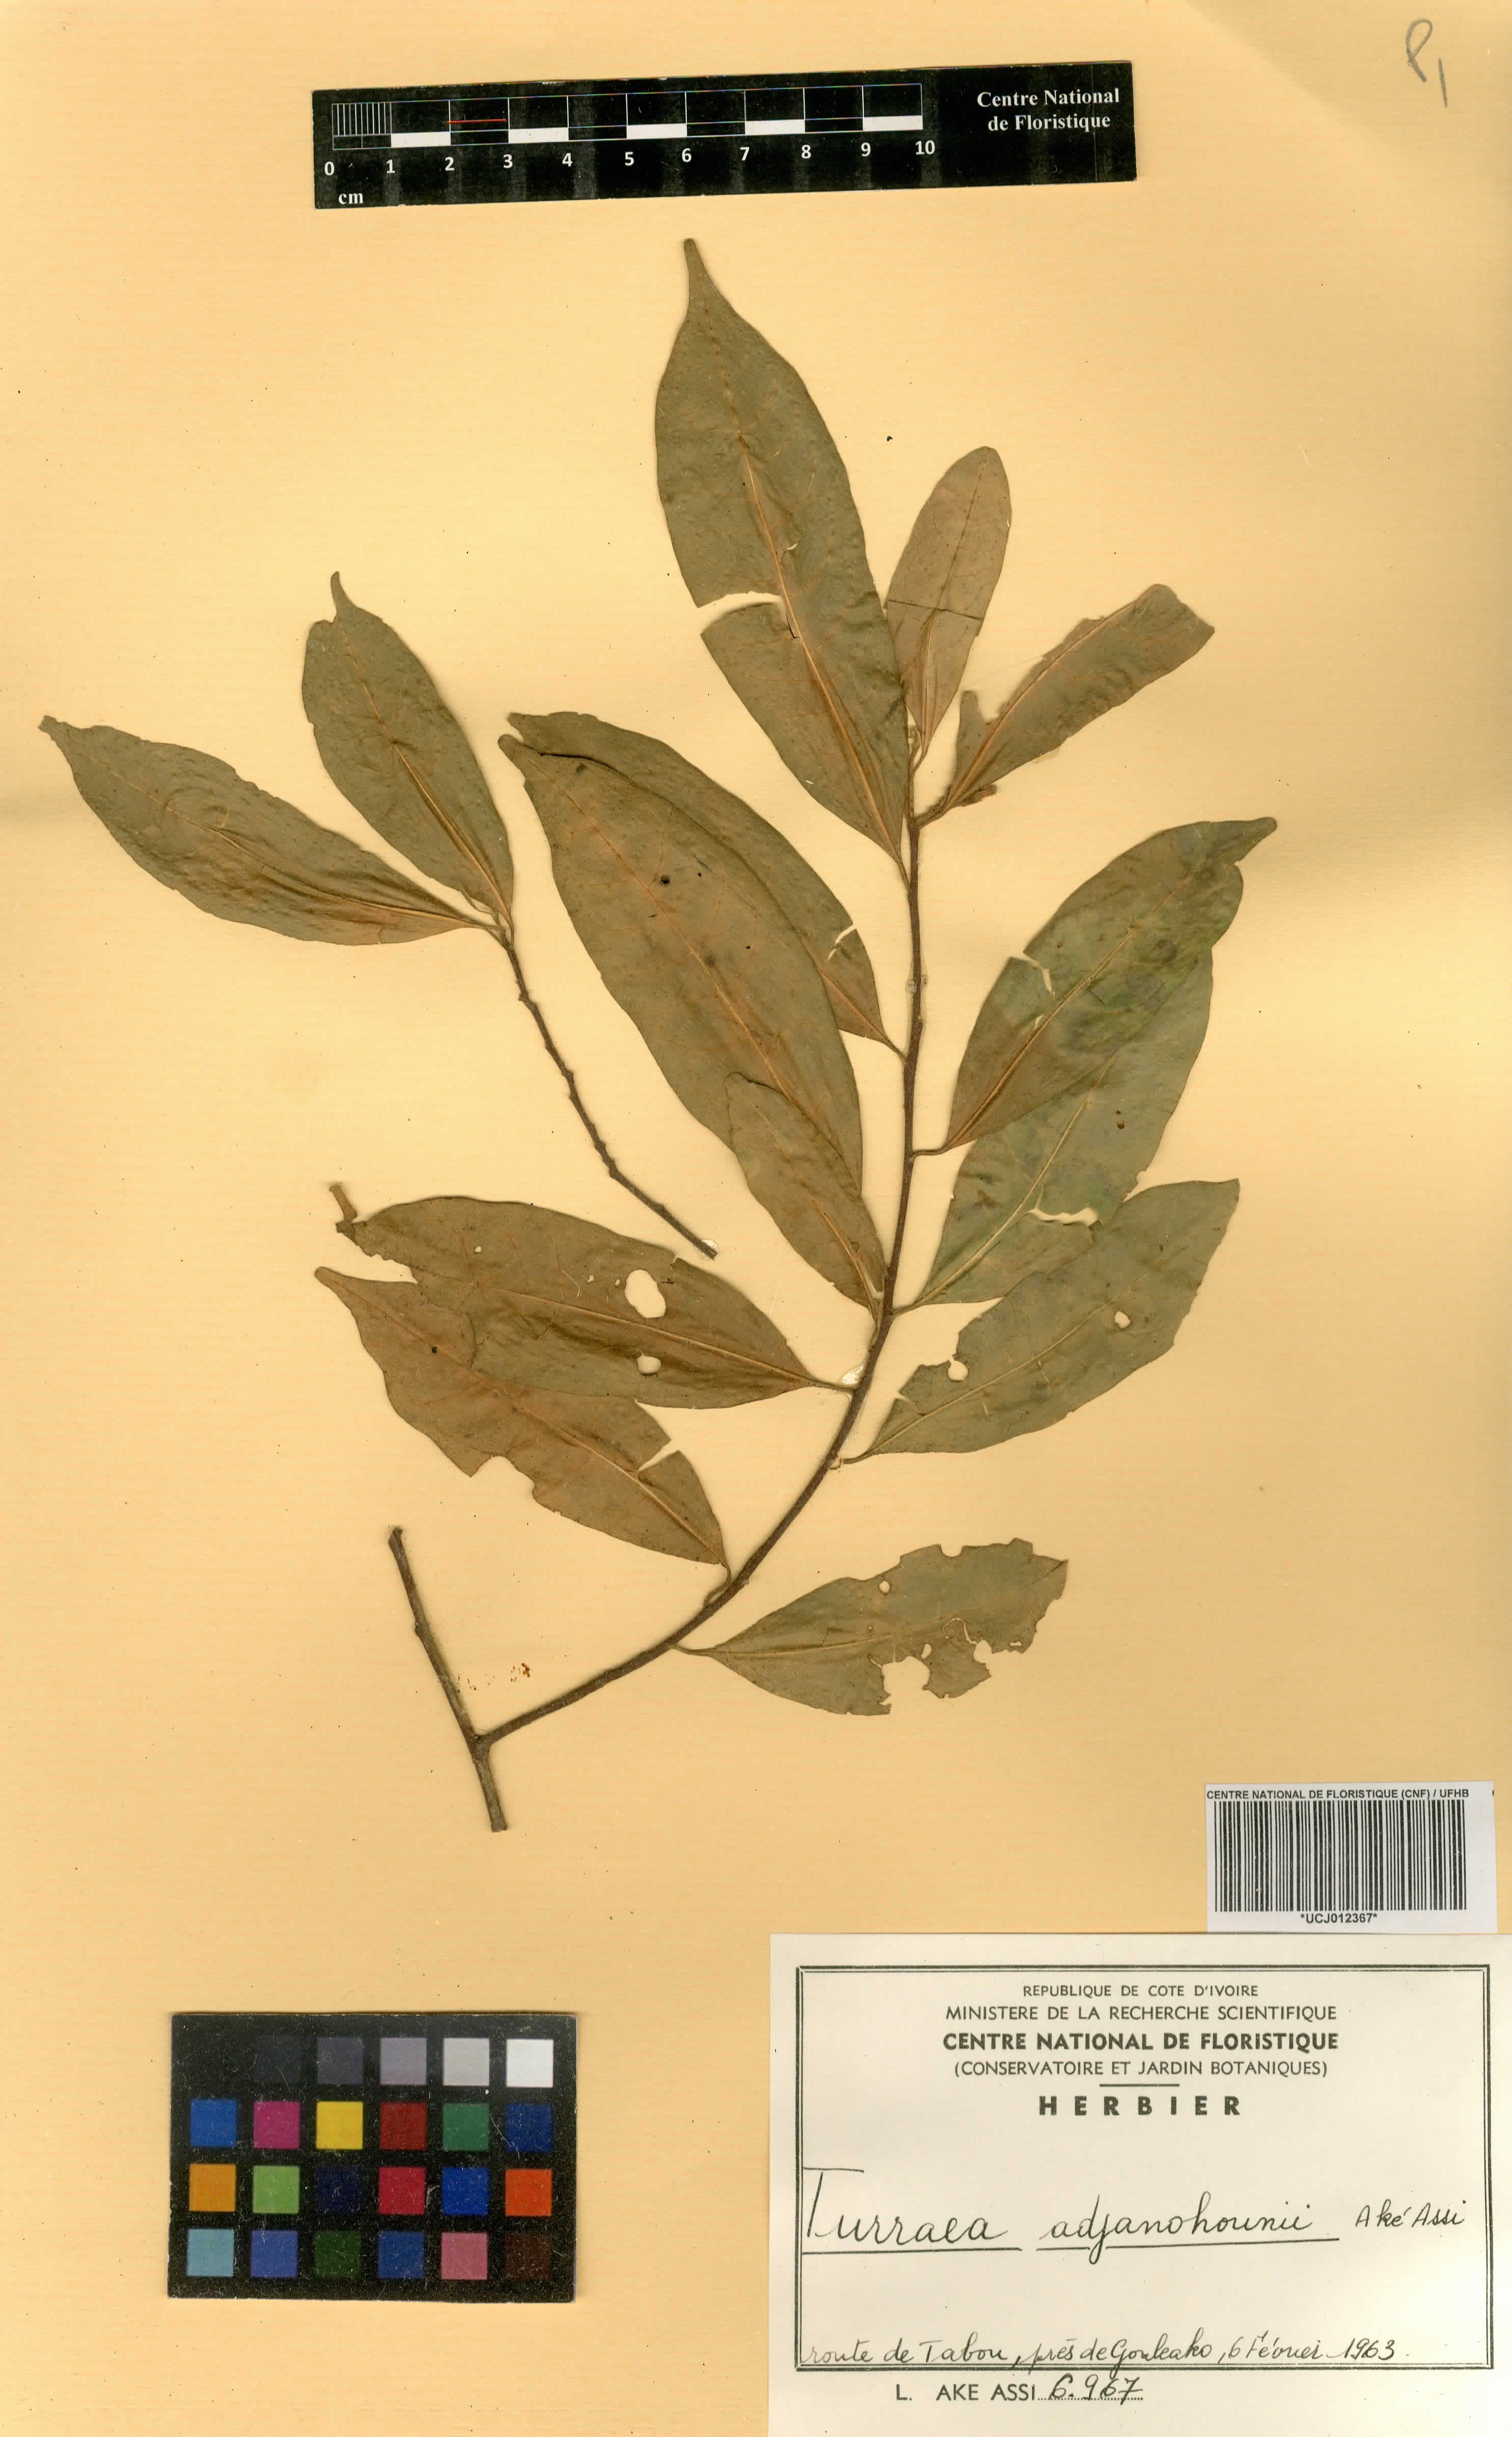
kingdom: Plantae
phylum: Tracheophyta
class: Magnoliopsida
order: Sapindales
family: Meliaceae
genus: Turraea
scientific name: Turraea adjanohounii
